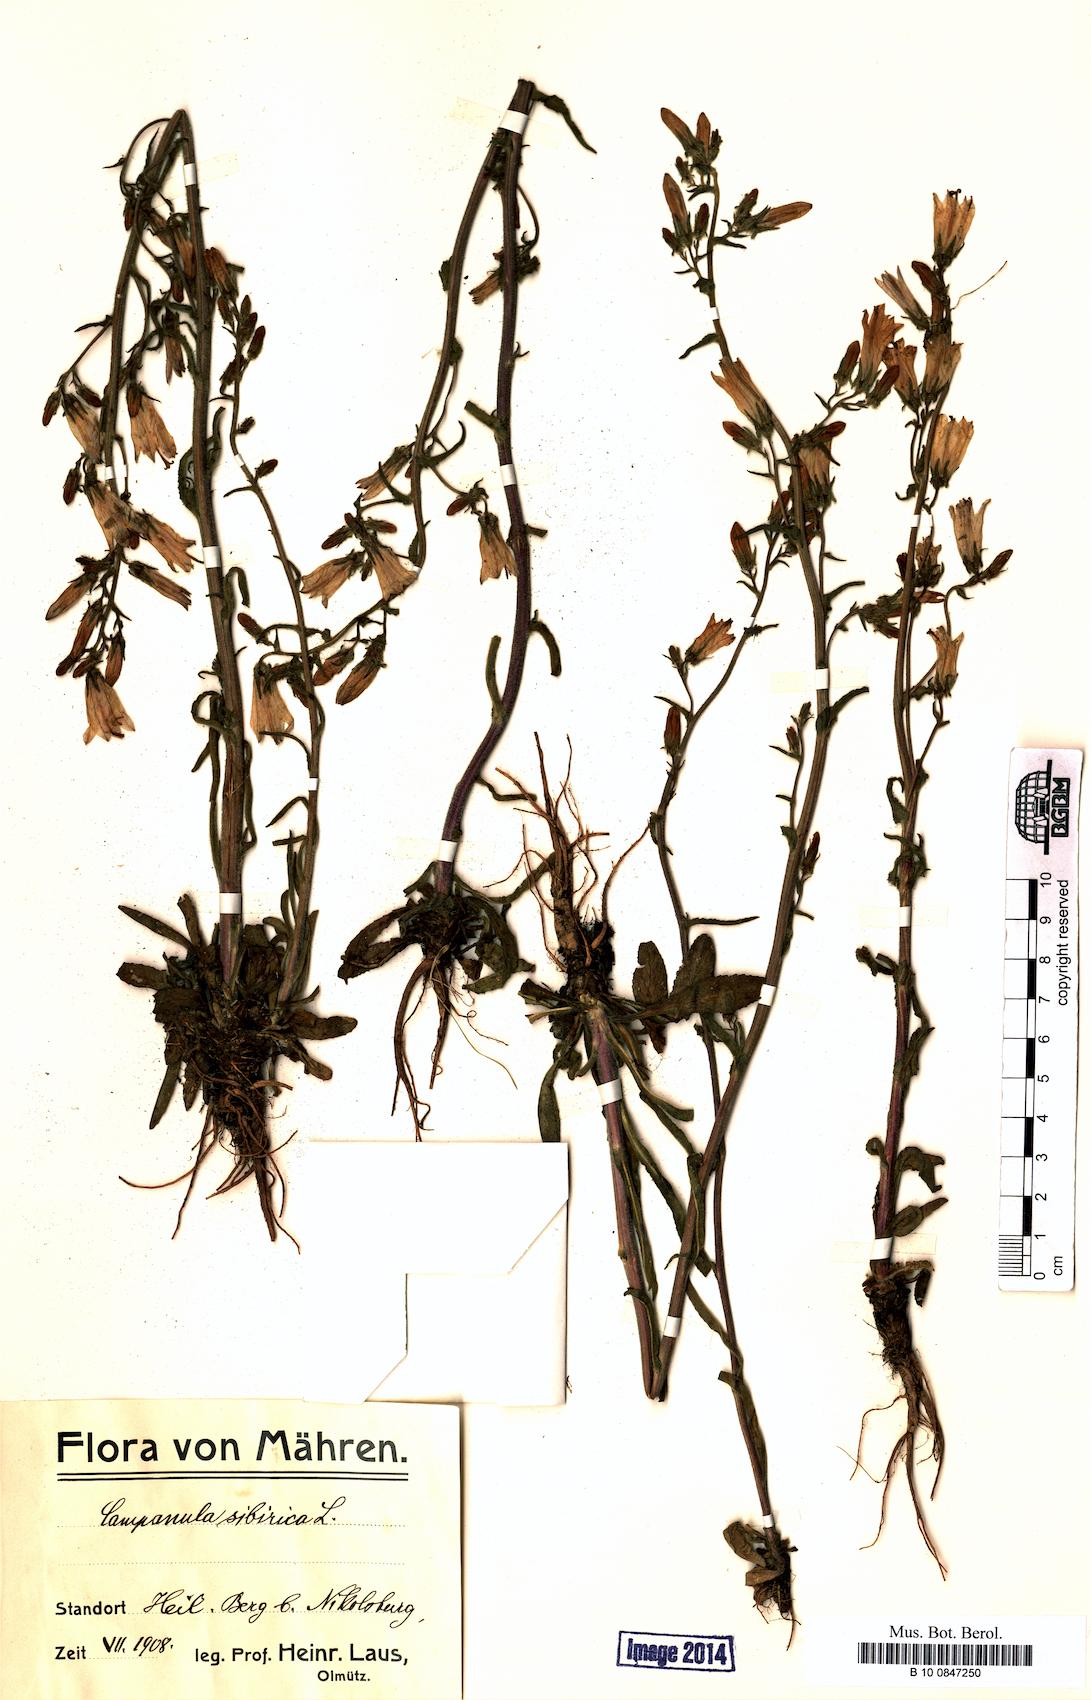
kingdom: Plantae
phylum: Tracheophyta
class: Magnoliopsida
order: Asterales
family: Campanulaceae
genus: Campanula
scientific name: Campanula sibirica
